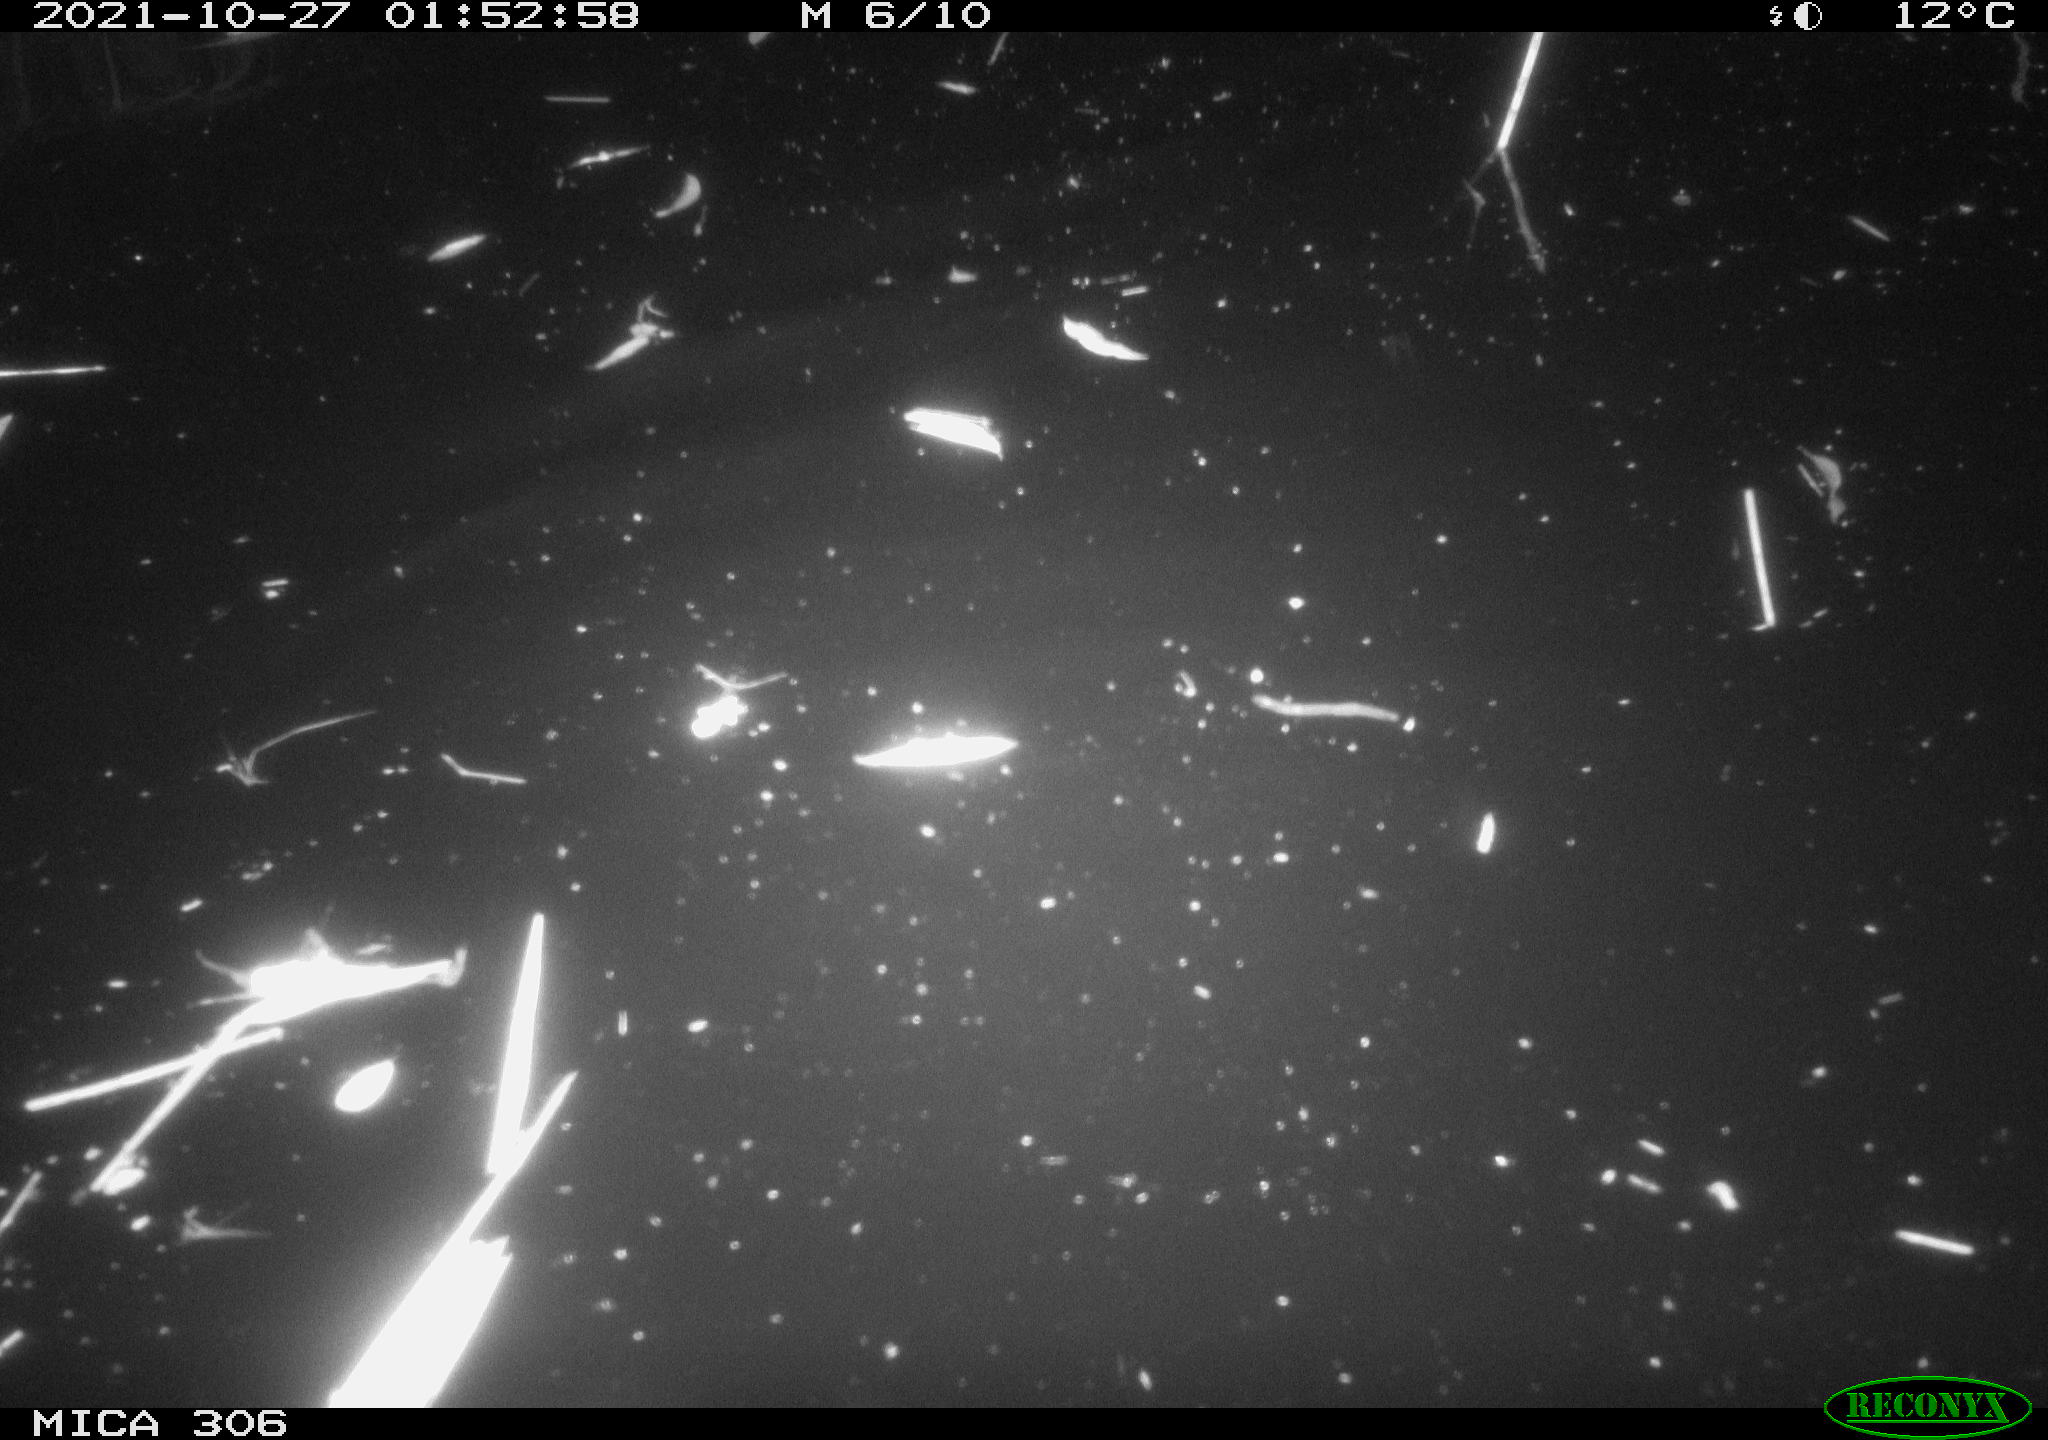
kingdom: Animalia
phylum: Chordata
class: Mammalia
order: Rodentia
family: Cricetidae
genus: Ondatra
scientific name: Ondatra zibethicus
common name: Muskrat
